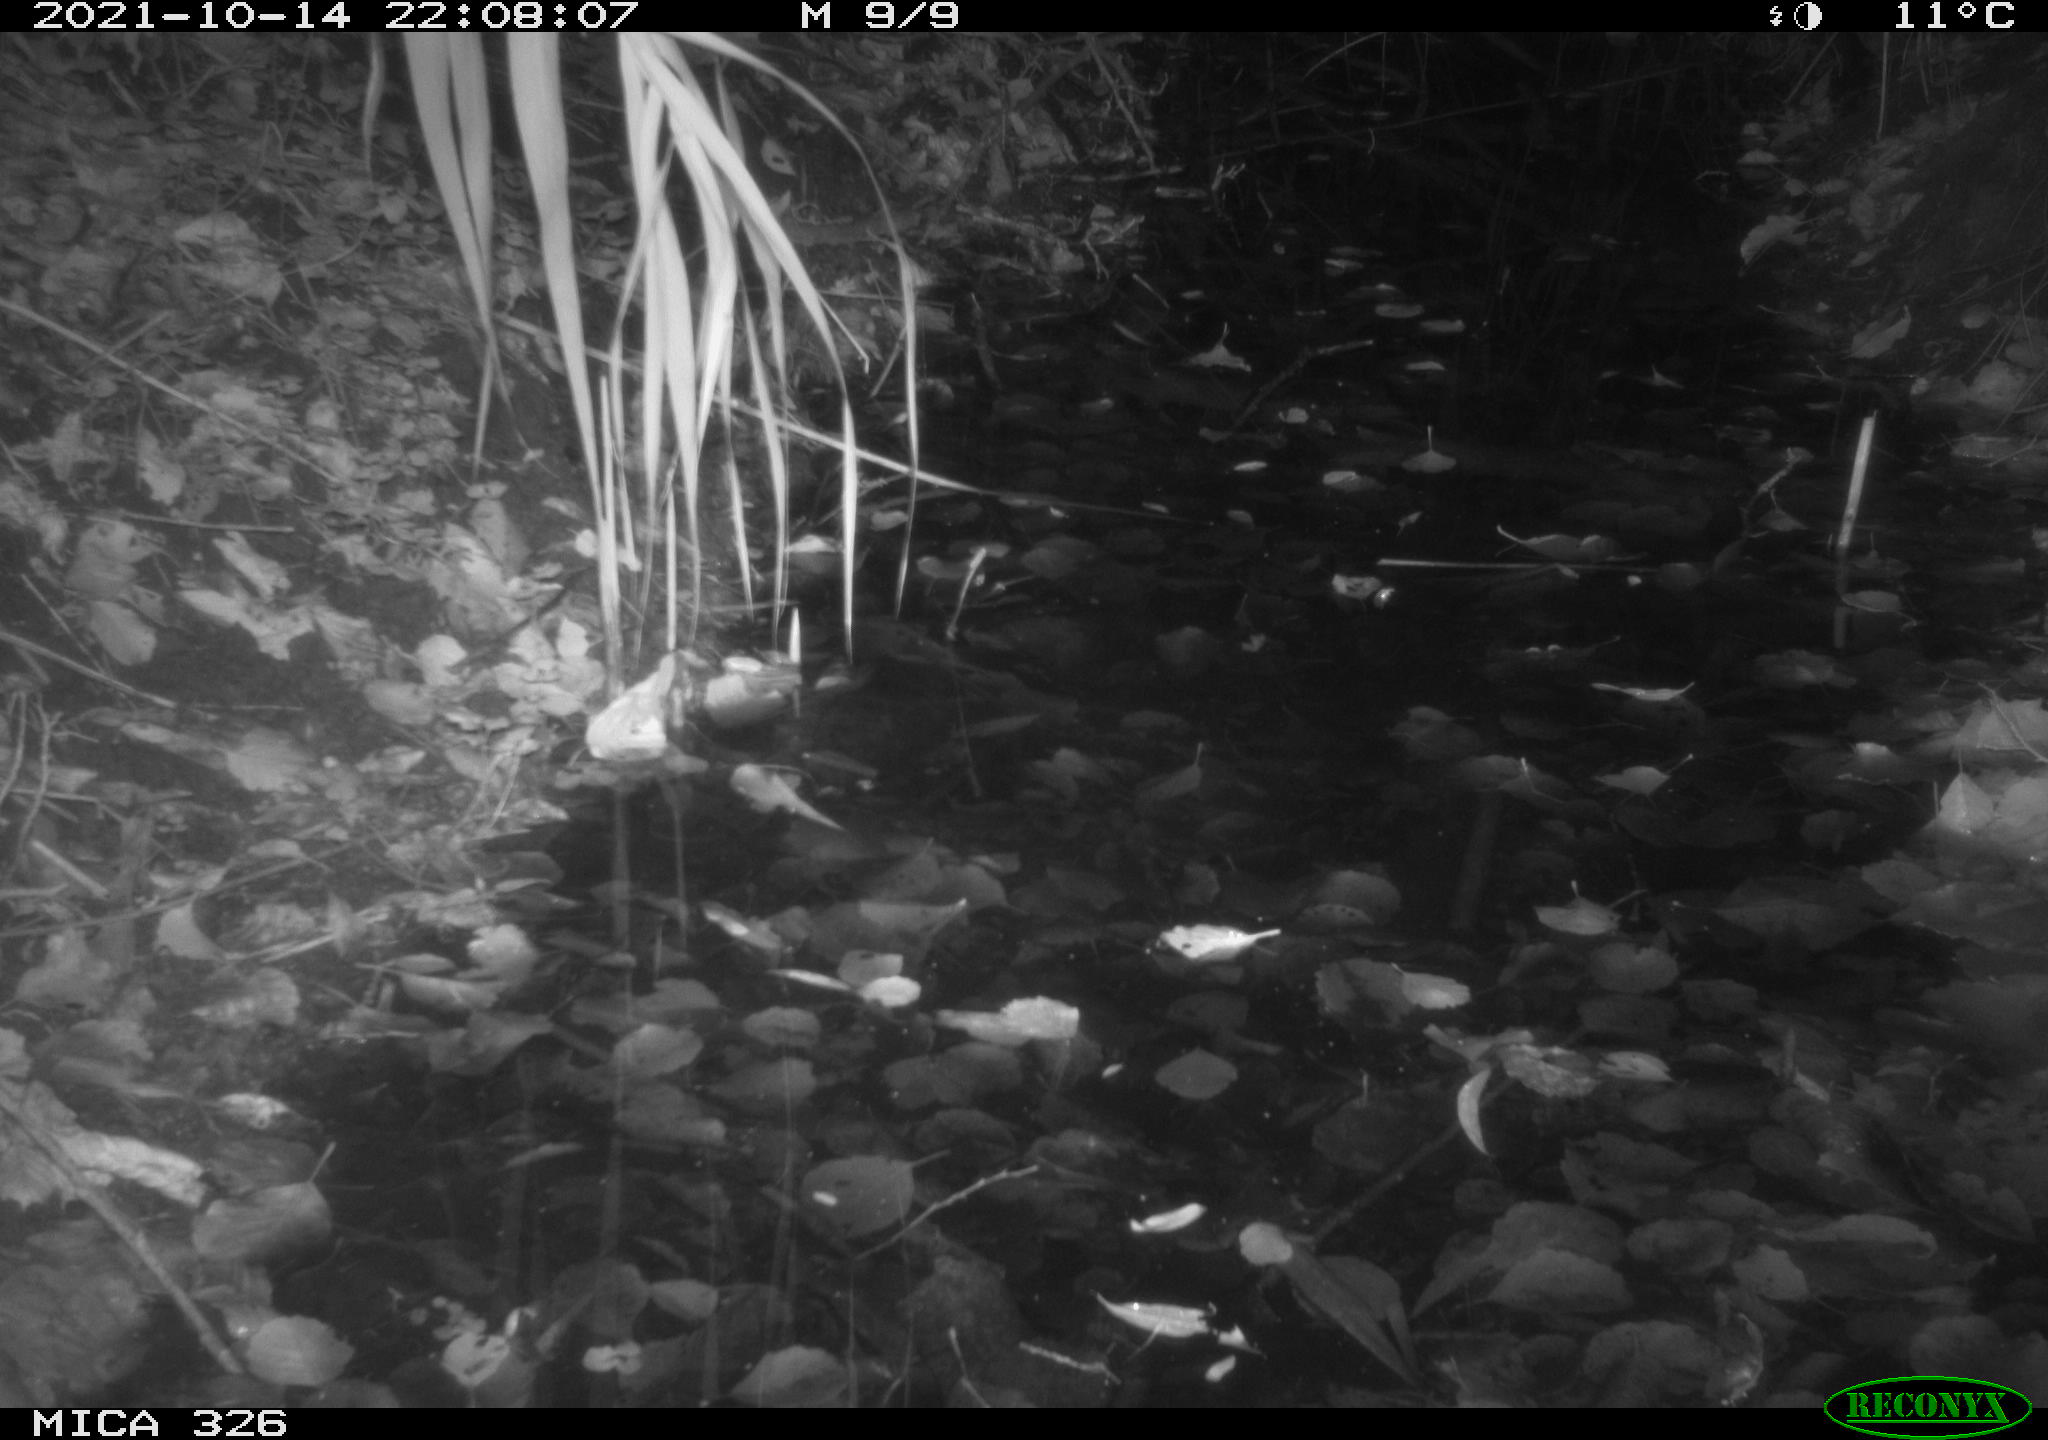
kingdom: Animalia
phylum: Chordata
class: Mammalia
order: Rodentia
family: Muridae
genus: Rattus
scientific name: Rattus norvegicus
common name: Brown rat
